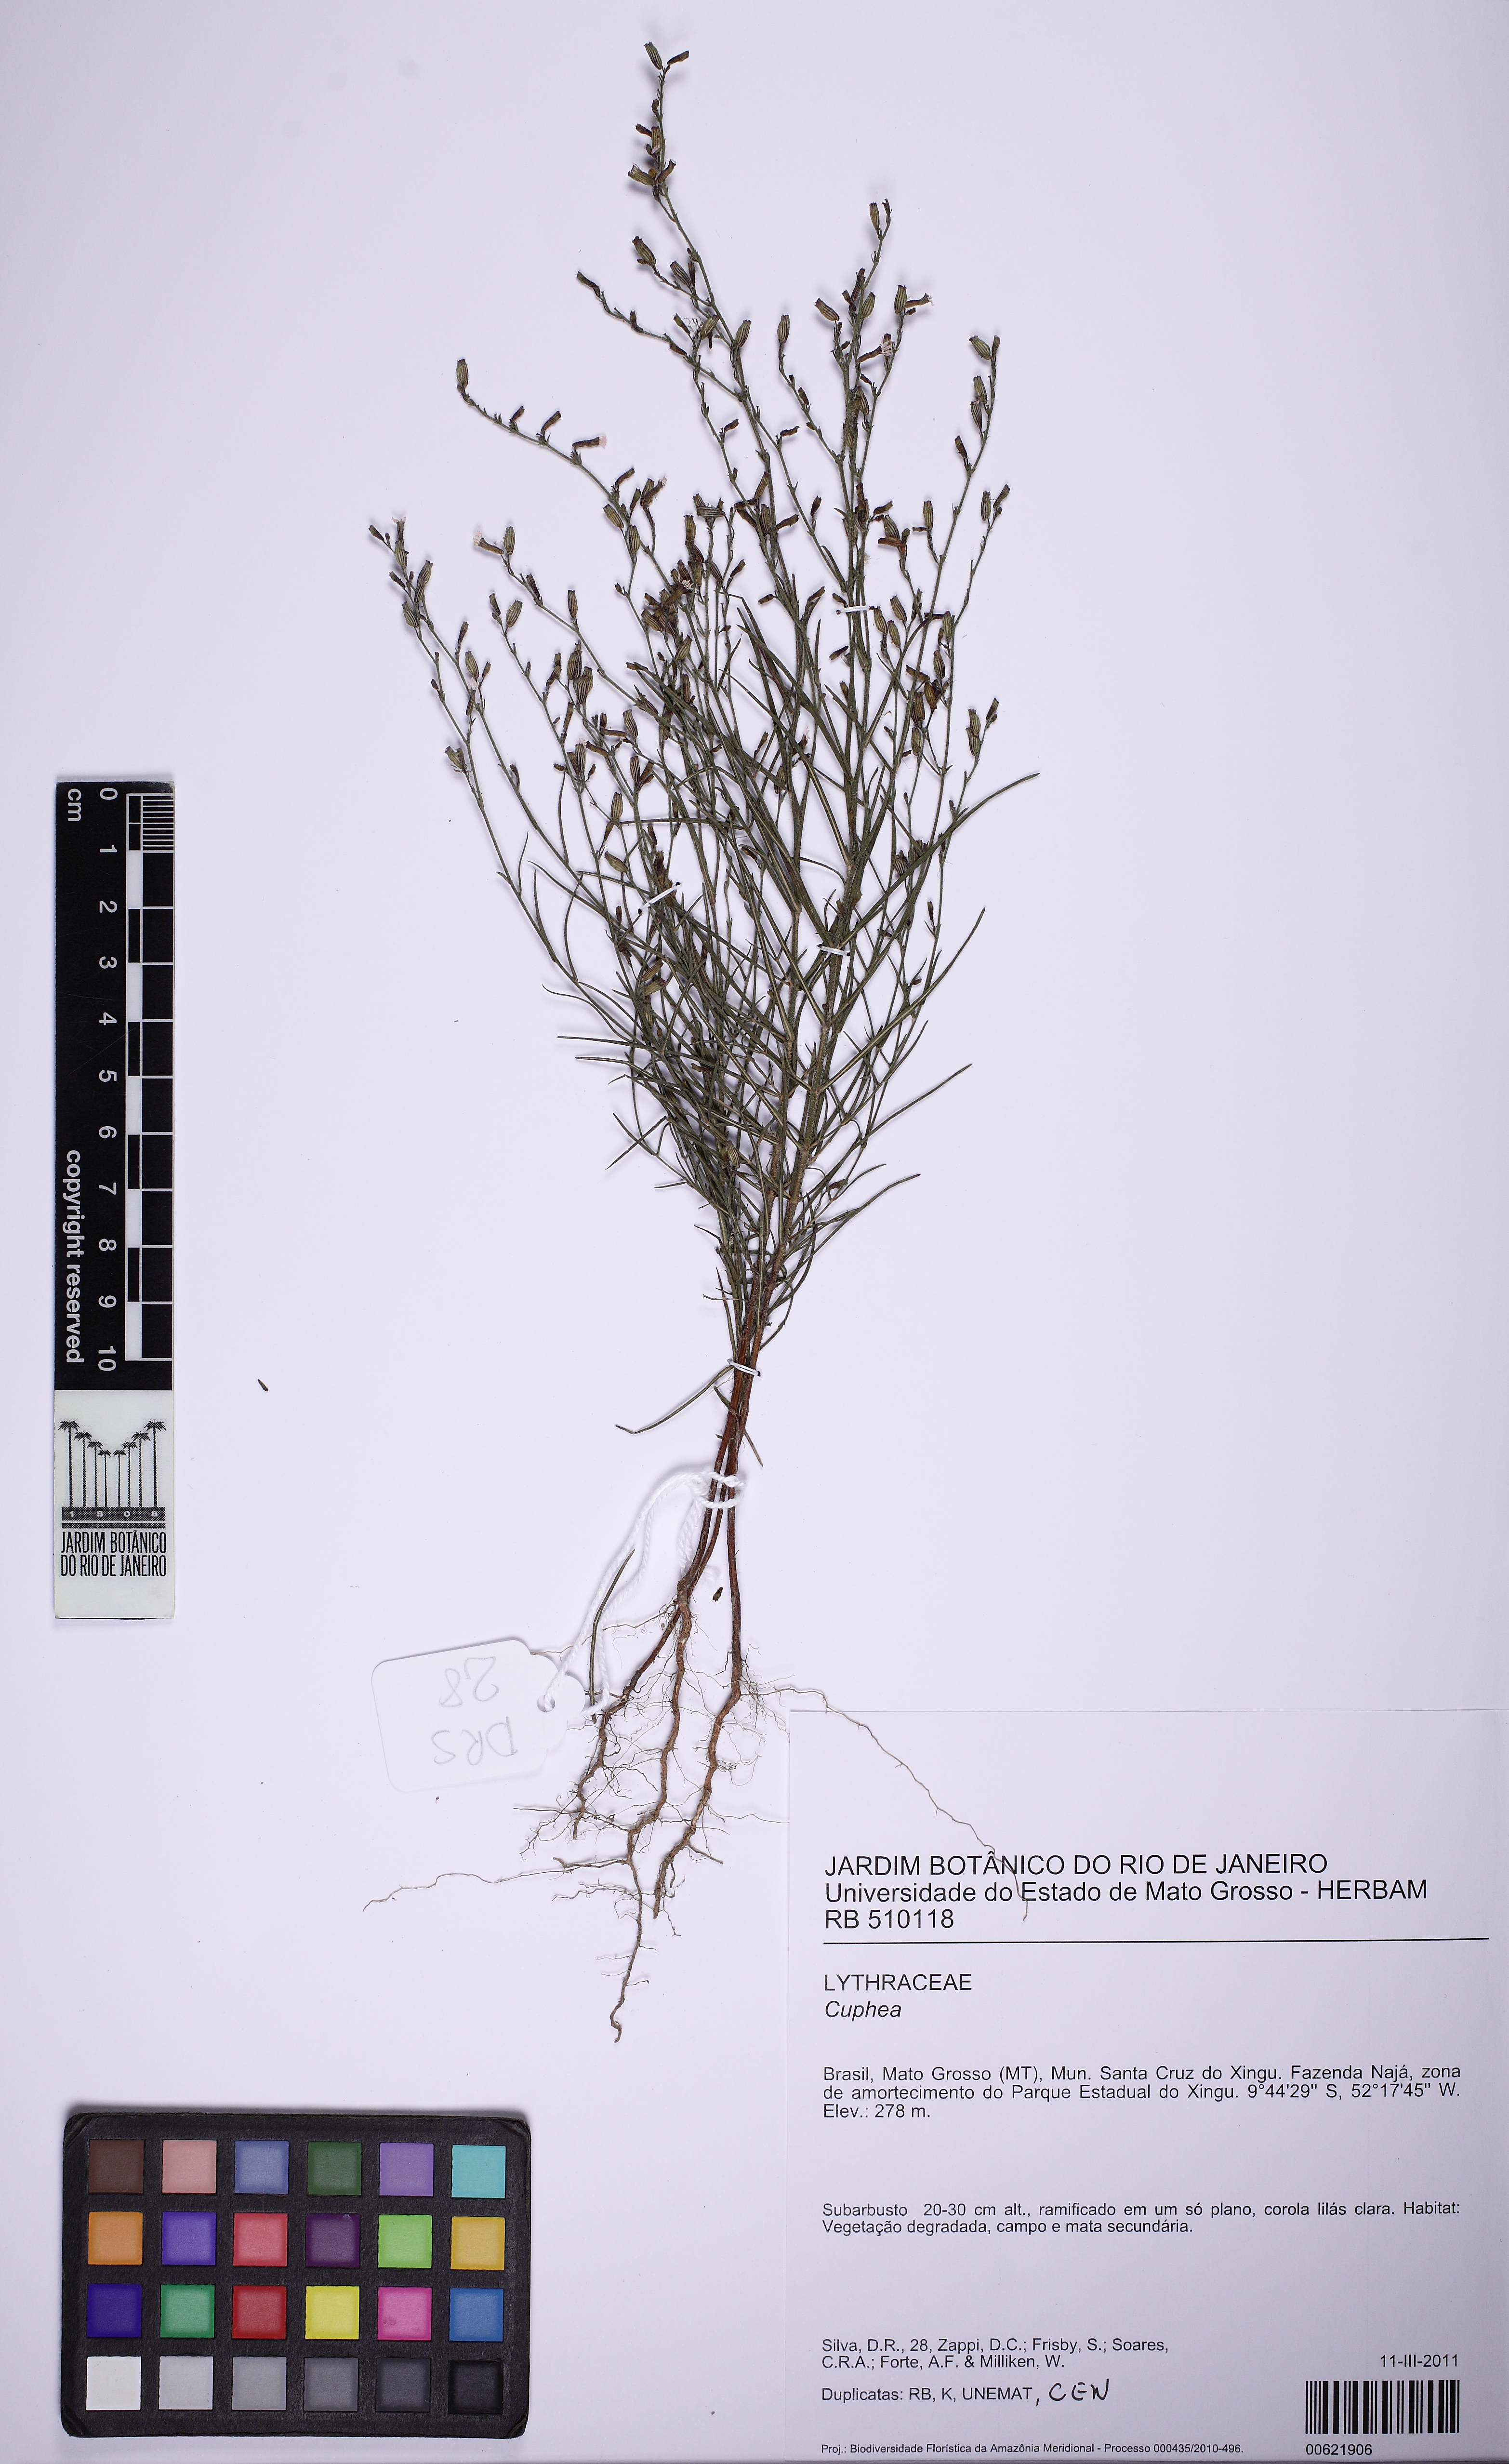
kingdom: Plantae
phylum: Tracheophyta
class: Magnoliopsida
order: Myrtales
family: Lythraceae
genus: Cuphea
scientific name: Cuphea tenuissima
